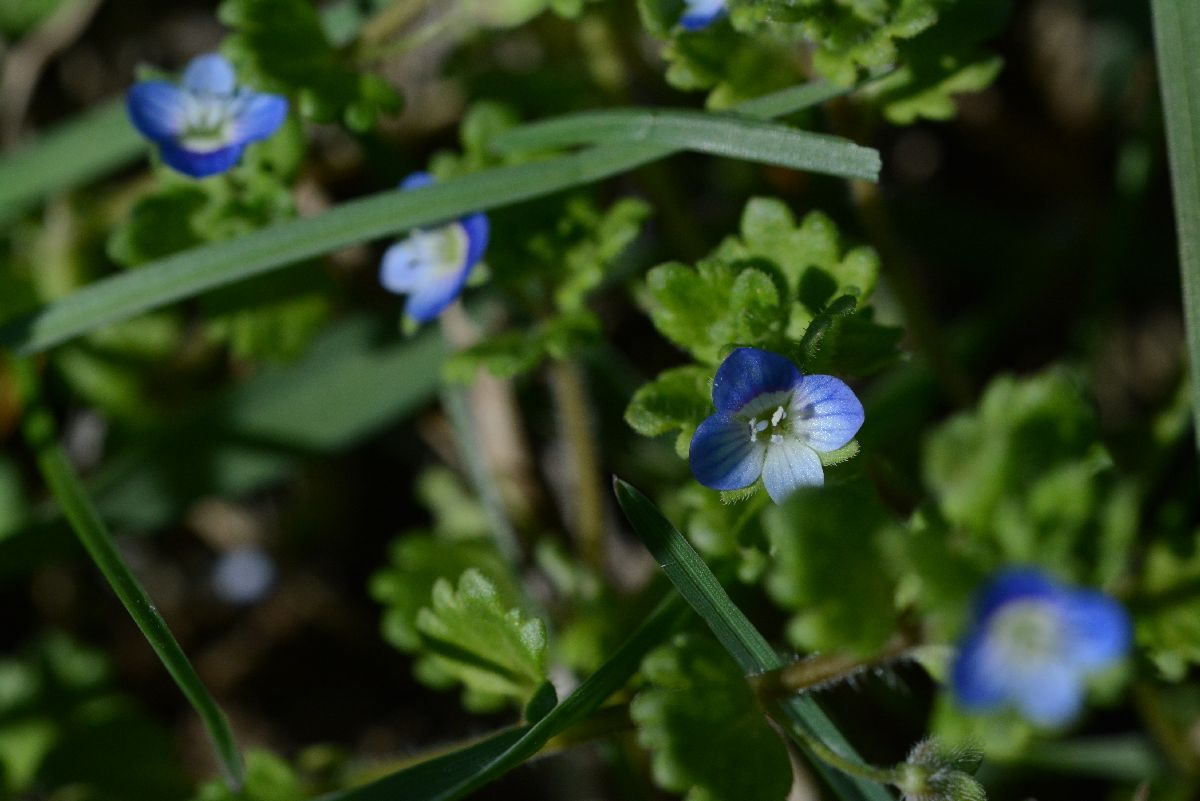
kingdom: Plantae
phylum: Tracheophyta
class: Magnoliopsida
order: Lamiales
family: Plantaginaceae
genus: Veronica
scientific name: Veronica polita
